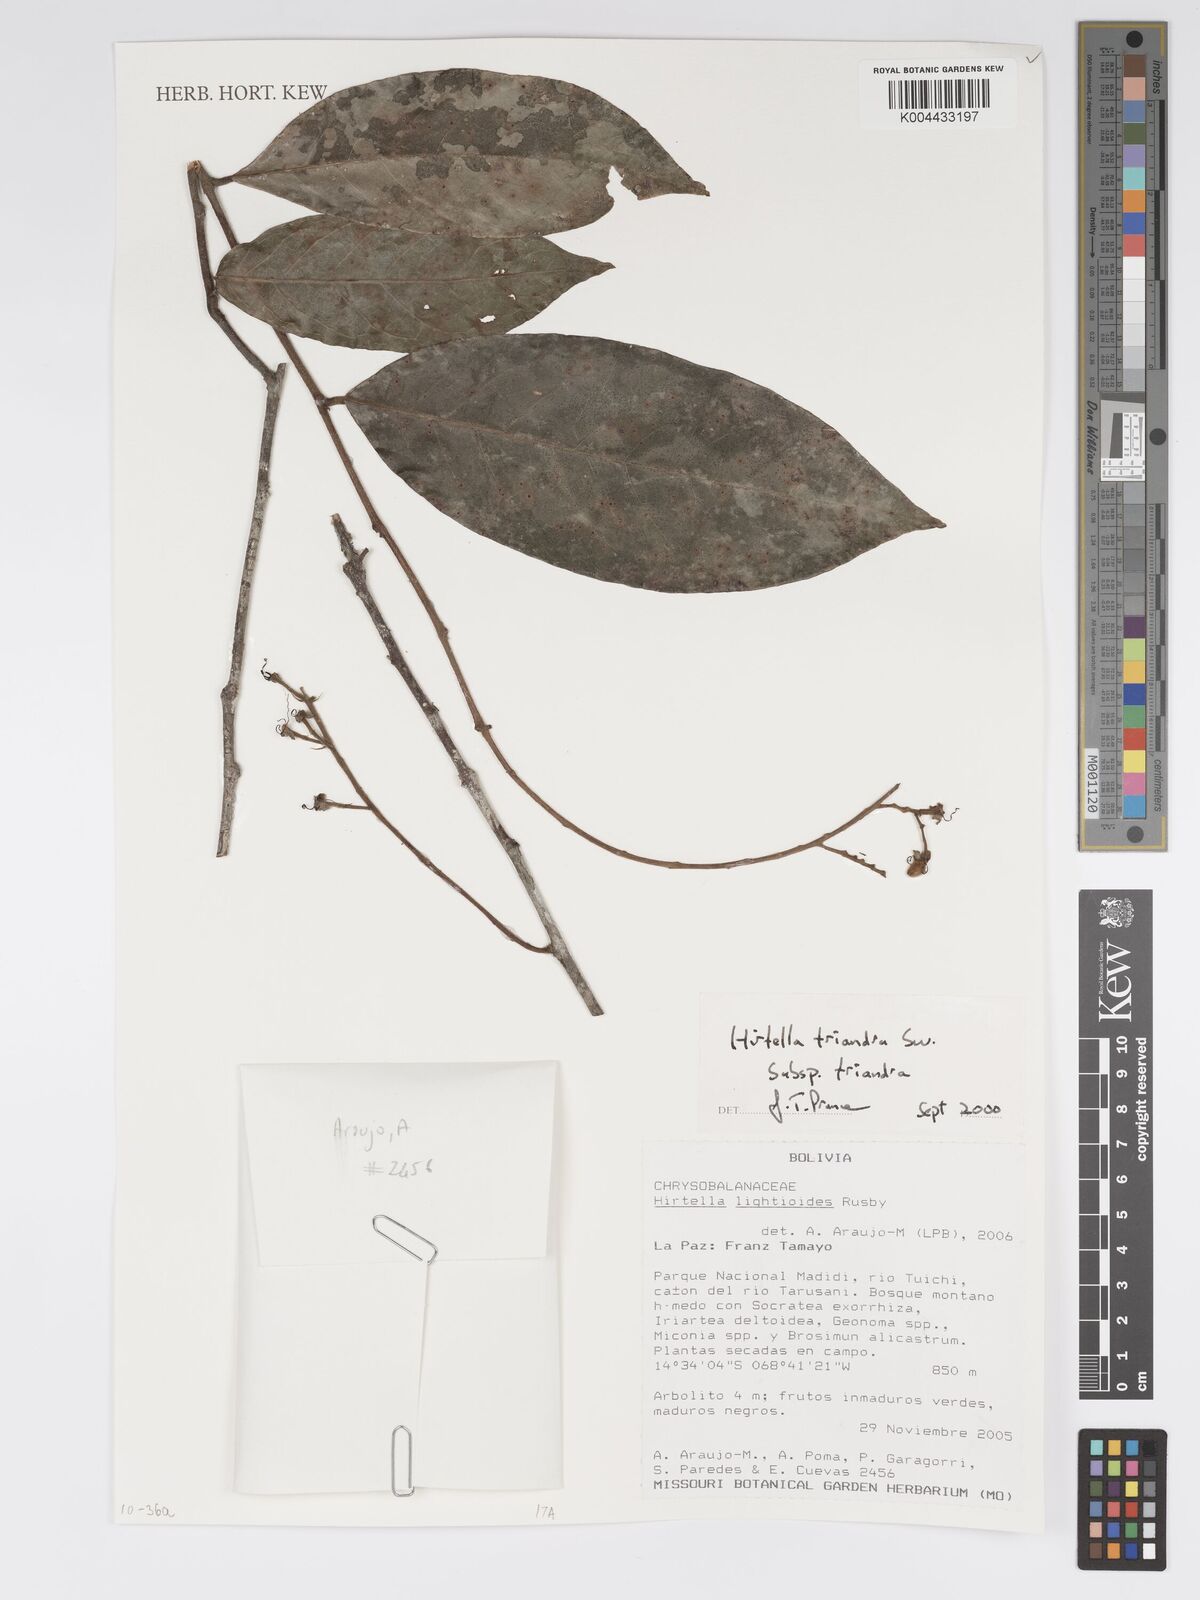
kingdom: Plantae
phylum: Tracheophyta
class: Magnoliopsida
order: Malpighiales
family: Chrysobalanaceae
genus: Hirtella
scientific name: Hirtella triandra
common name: Hairy plum
